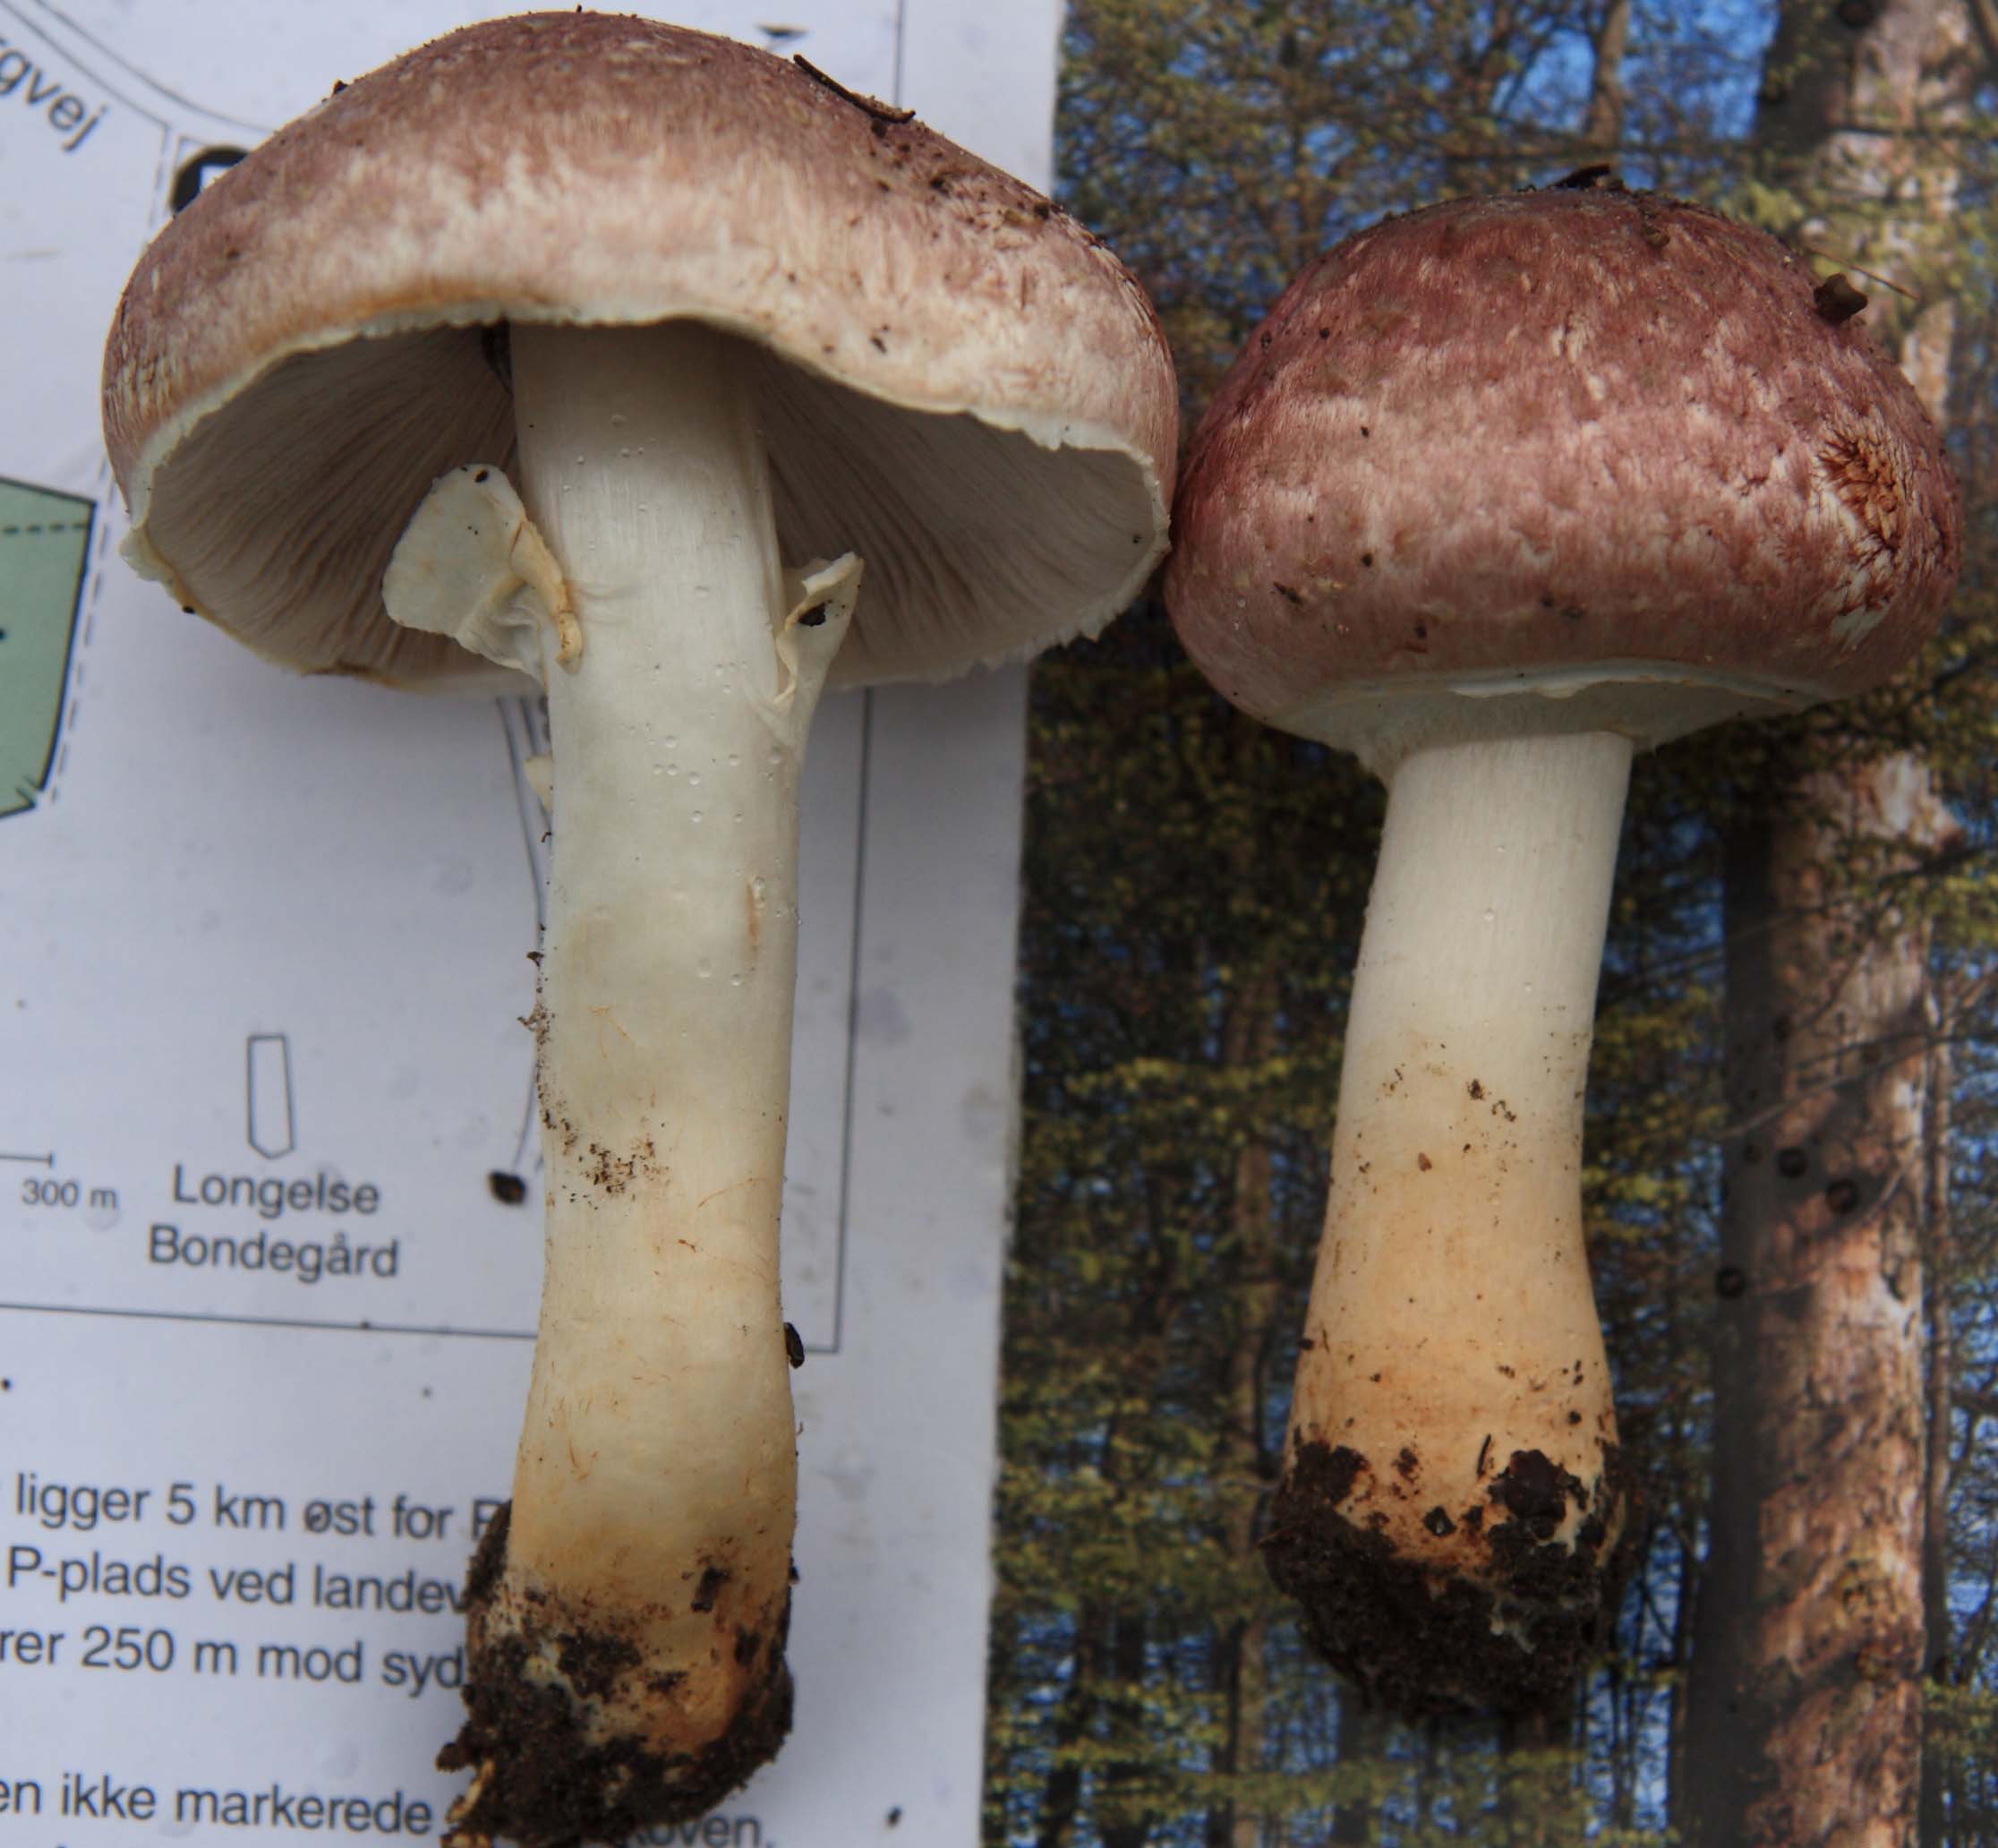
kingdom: Fungi
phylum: Basidiomycota
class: Agaricomycetes
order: Agaricales
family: Agaricaceae
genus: Agaricus
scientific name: Agaricus brunneolus
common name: purpur-champignon
